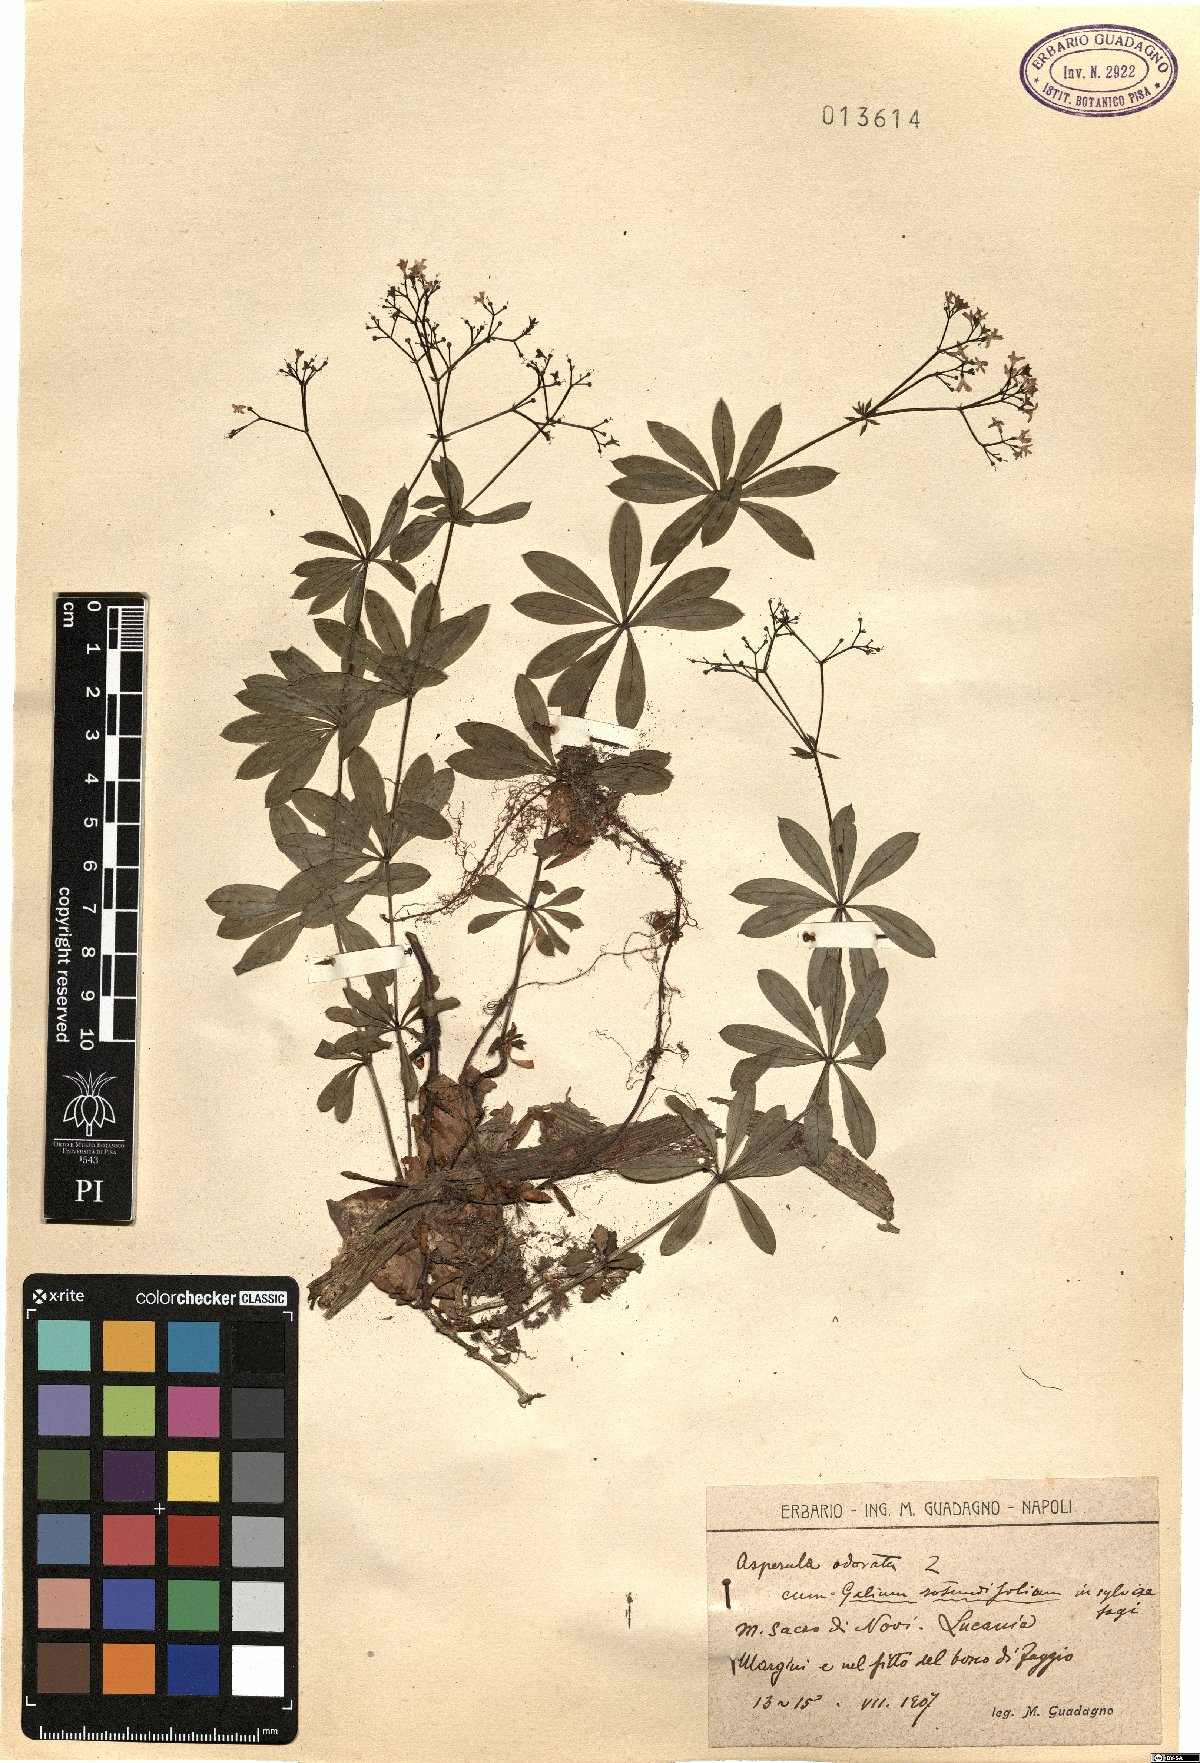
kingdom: Plantae
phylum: Tracheophyta
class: Magnoliopsida
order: Gentianales
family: Rubiaceae
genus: Galium
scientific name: Galium odoratum
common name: Sweet woodruff
